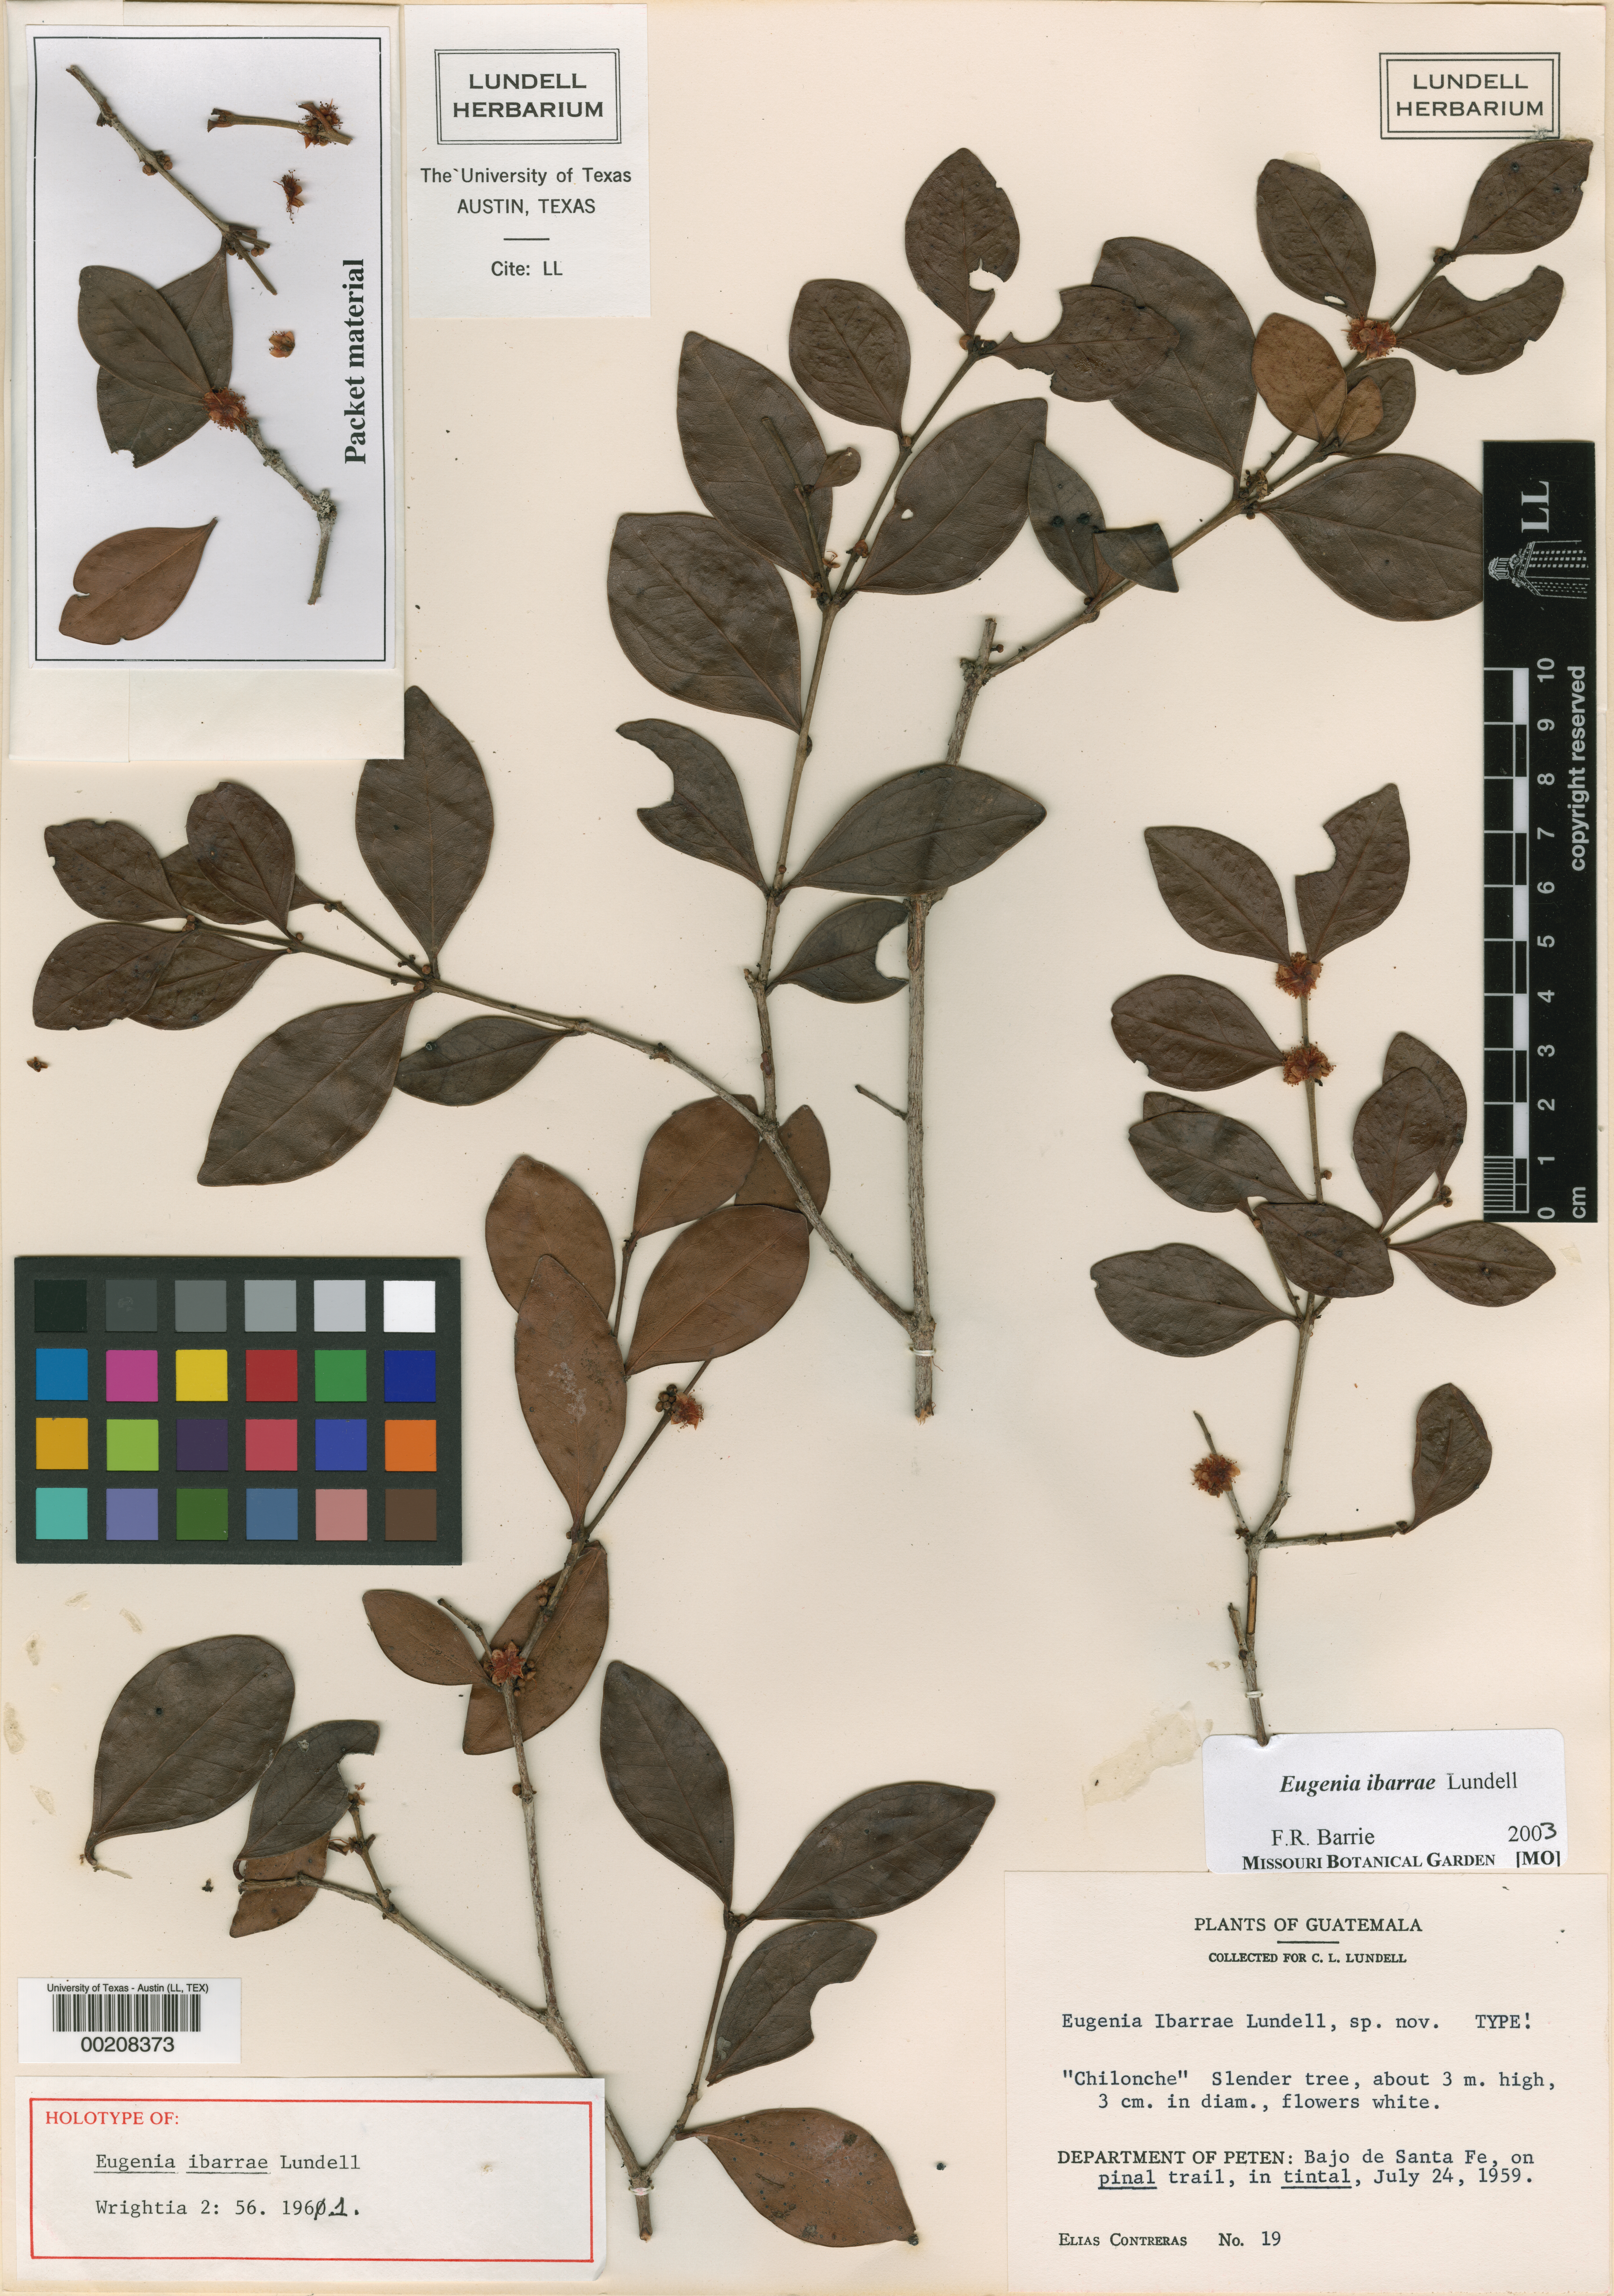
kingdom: Plantae
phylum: Tracheophyta
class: Magnoliopsida
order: Myrtales
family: Myrtaceae
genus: Eugenia
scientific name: Eugenia ibarrae
